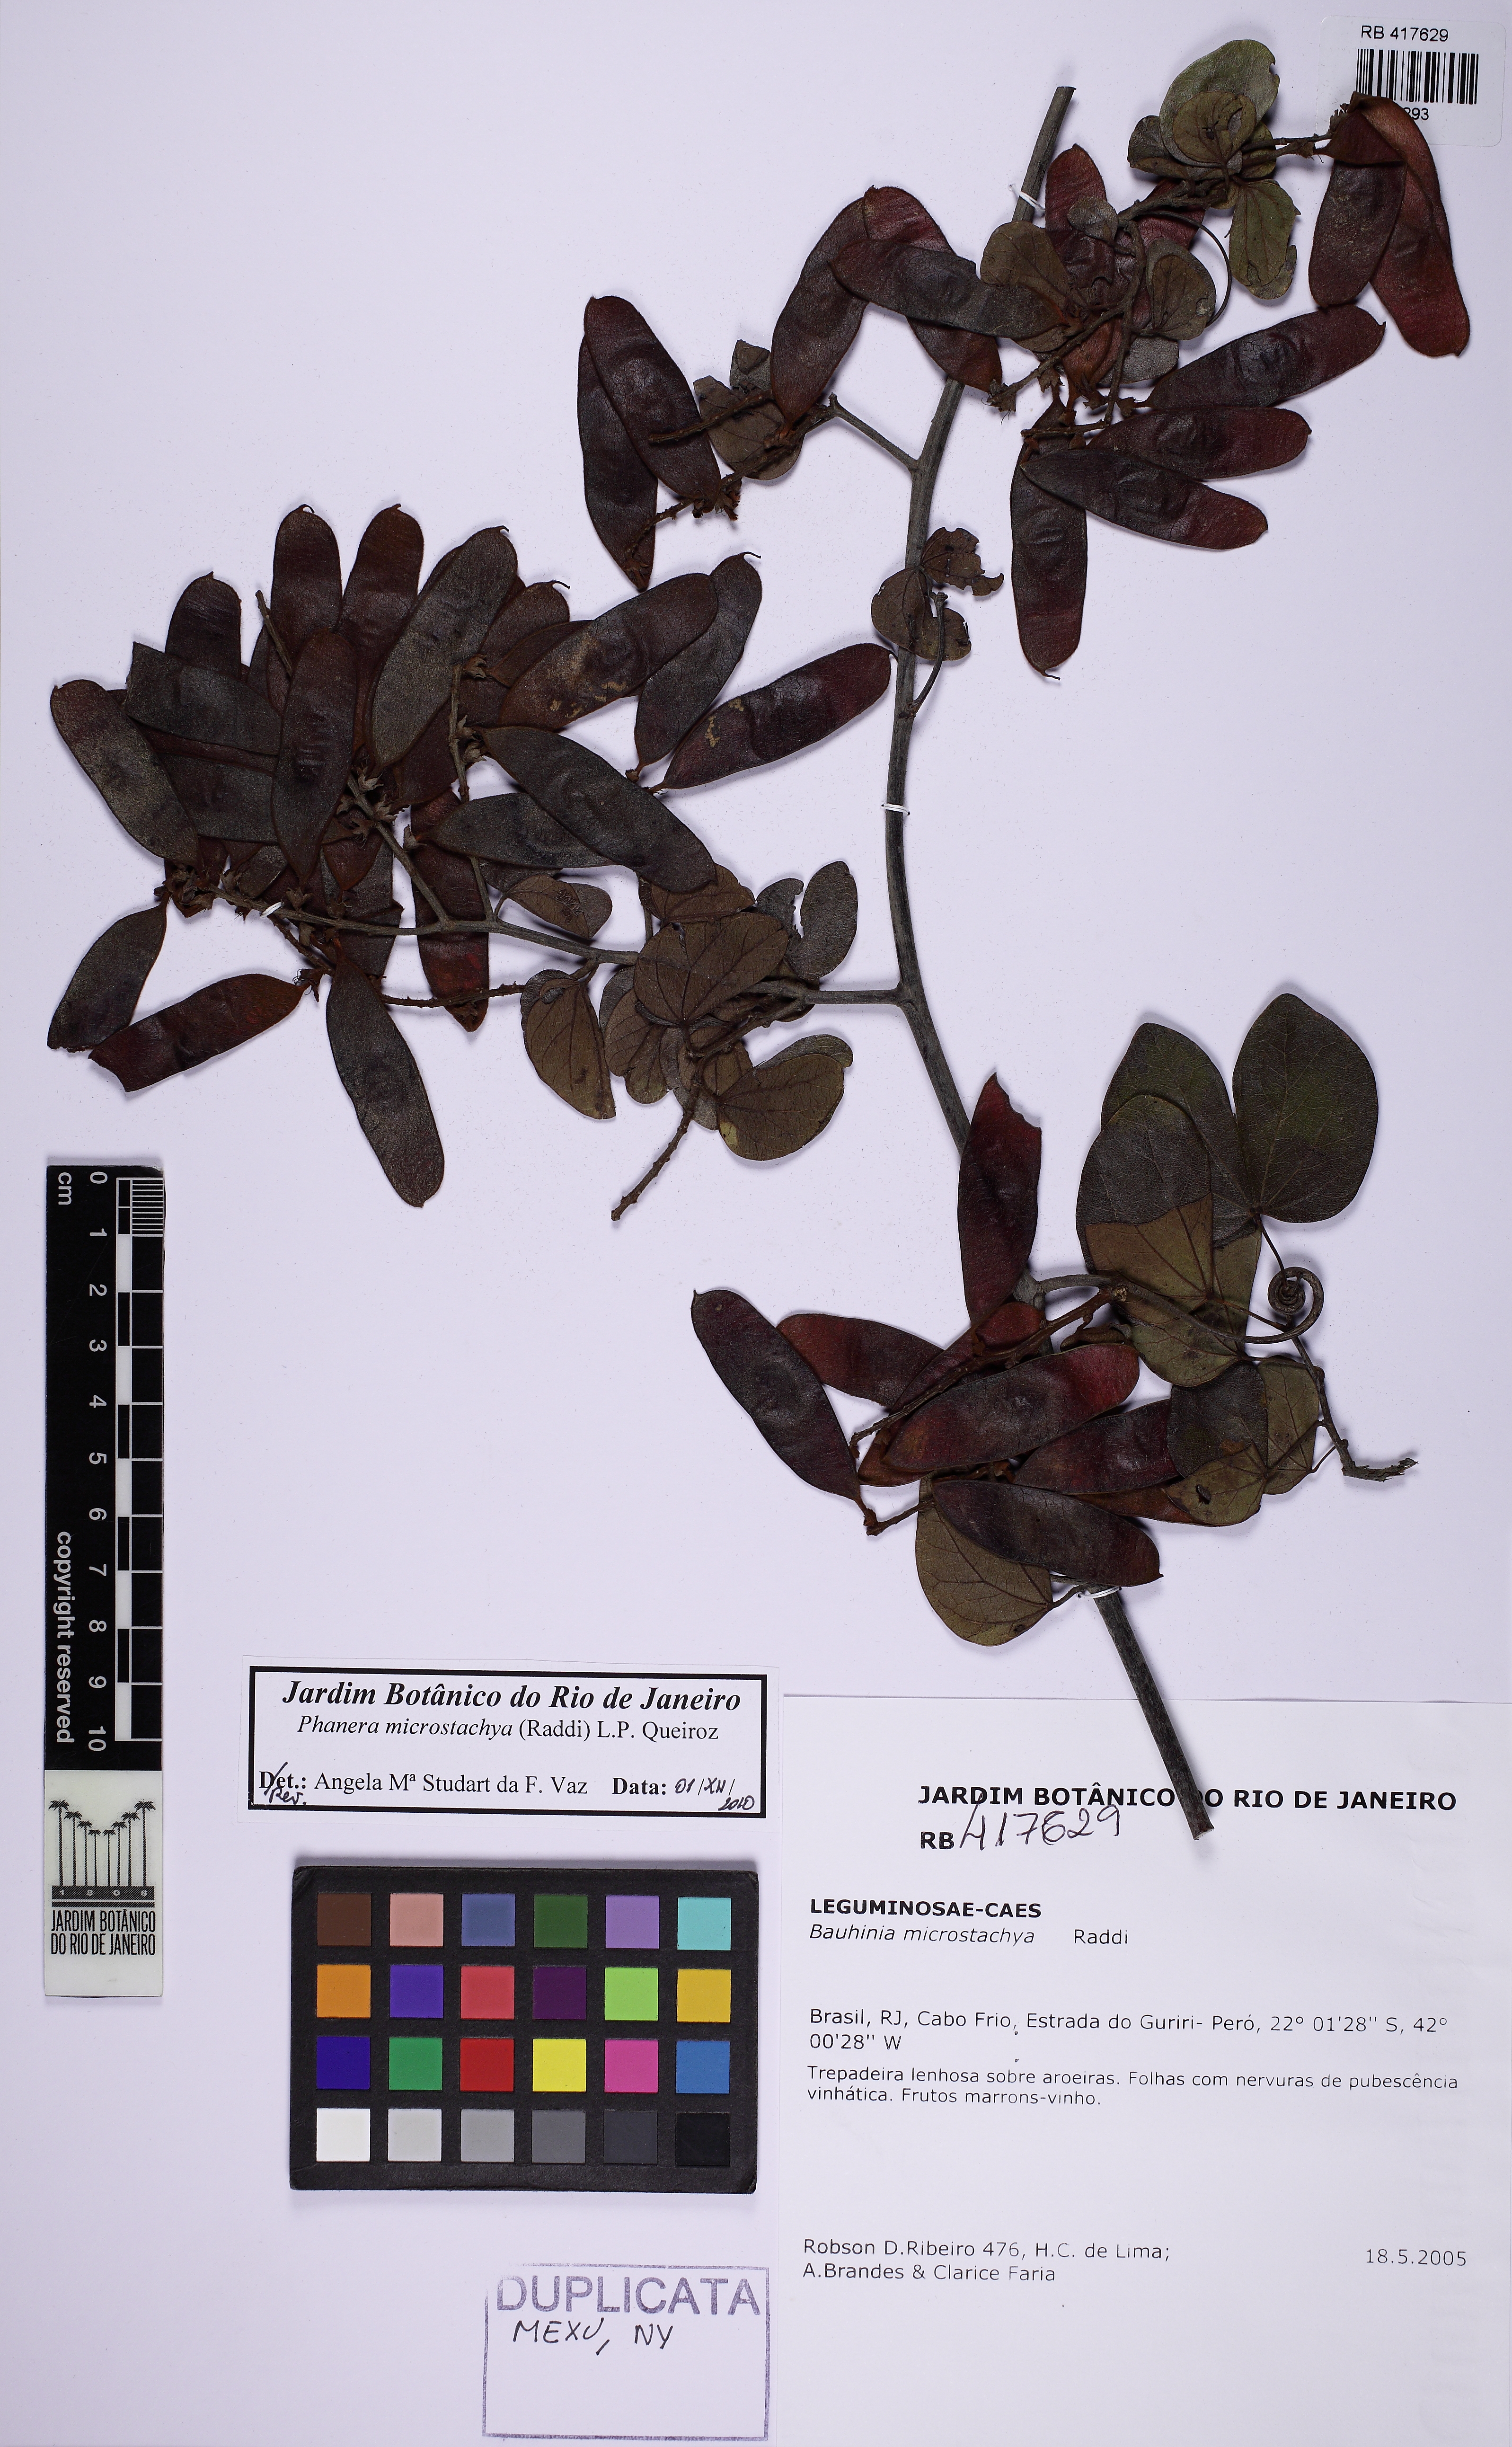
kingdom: Plantae
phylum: Tracheophyta
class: Magnoliopsida
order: Fabales
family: Fabaceae
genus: Schnella
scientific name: Schnella microstachya
